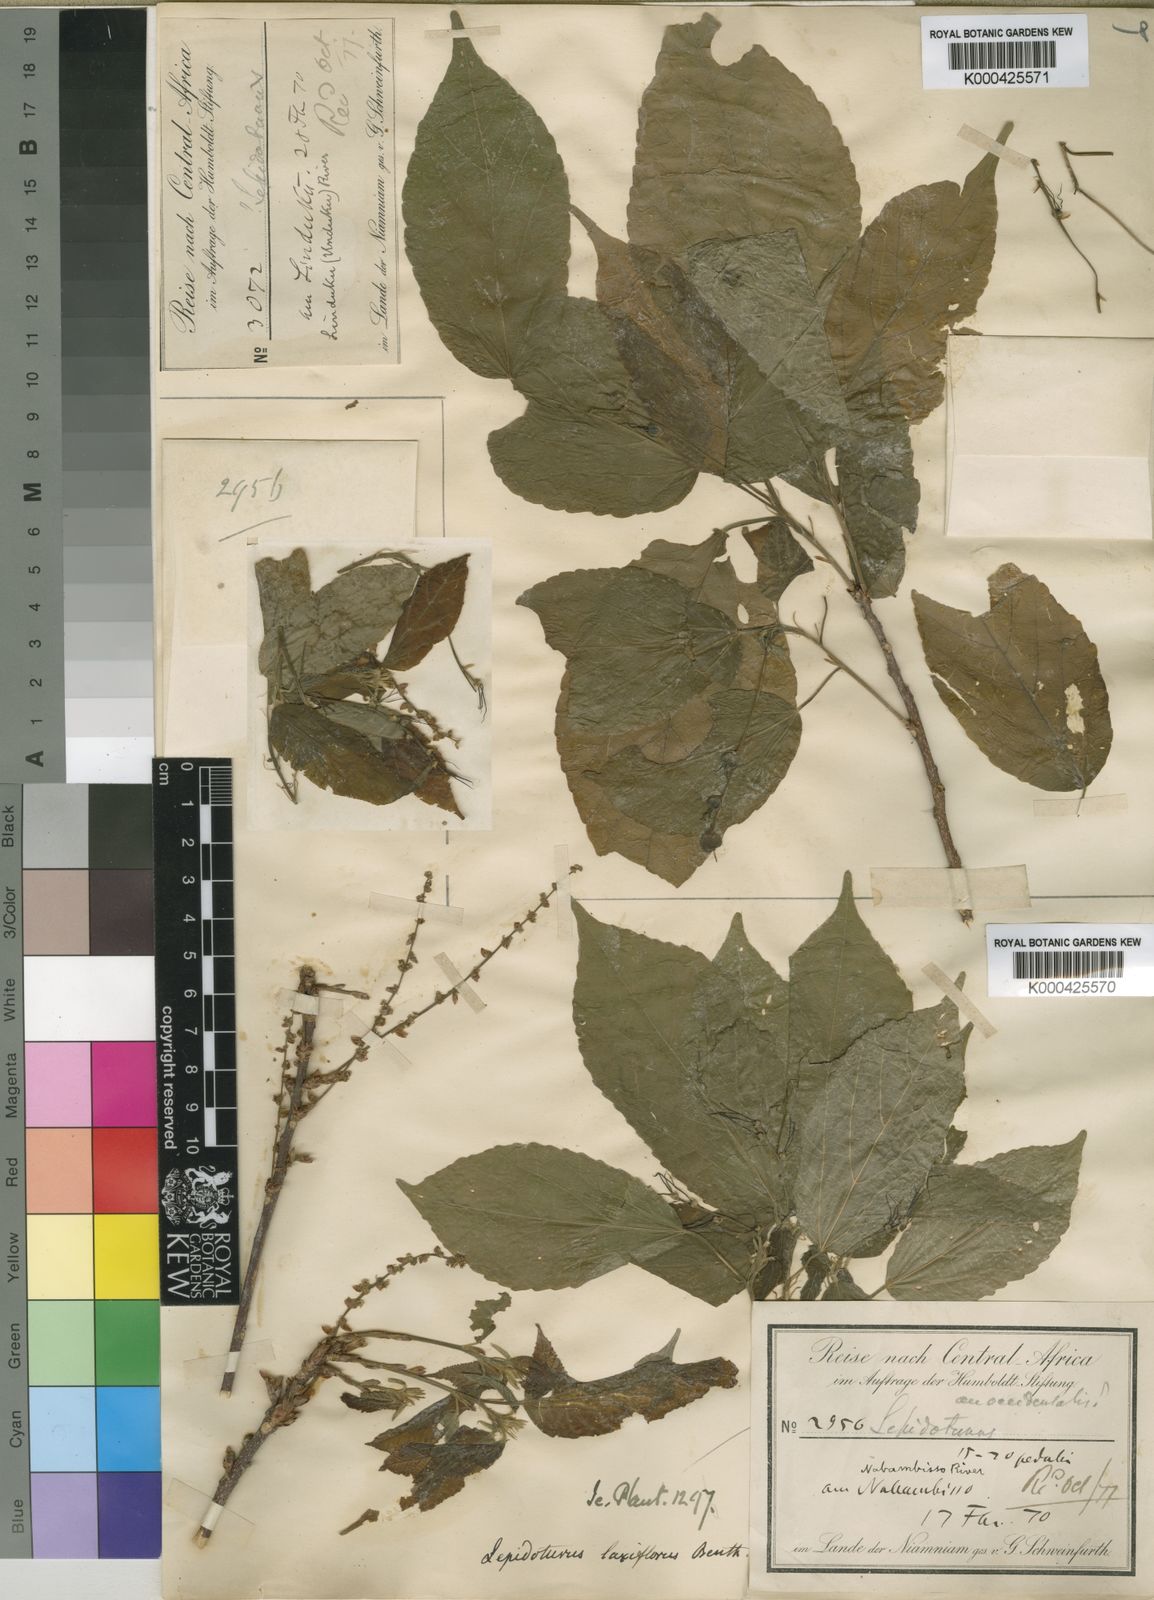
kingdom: Plantae
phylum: Tracheophyta
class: Magnoliopsida
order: Malpighiales
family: Euphorbiaceae
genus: Alchornea
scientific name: Alchornea laxiflora
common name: Lowveld bead-string
